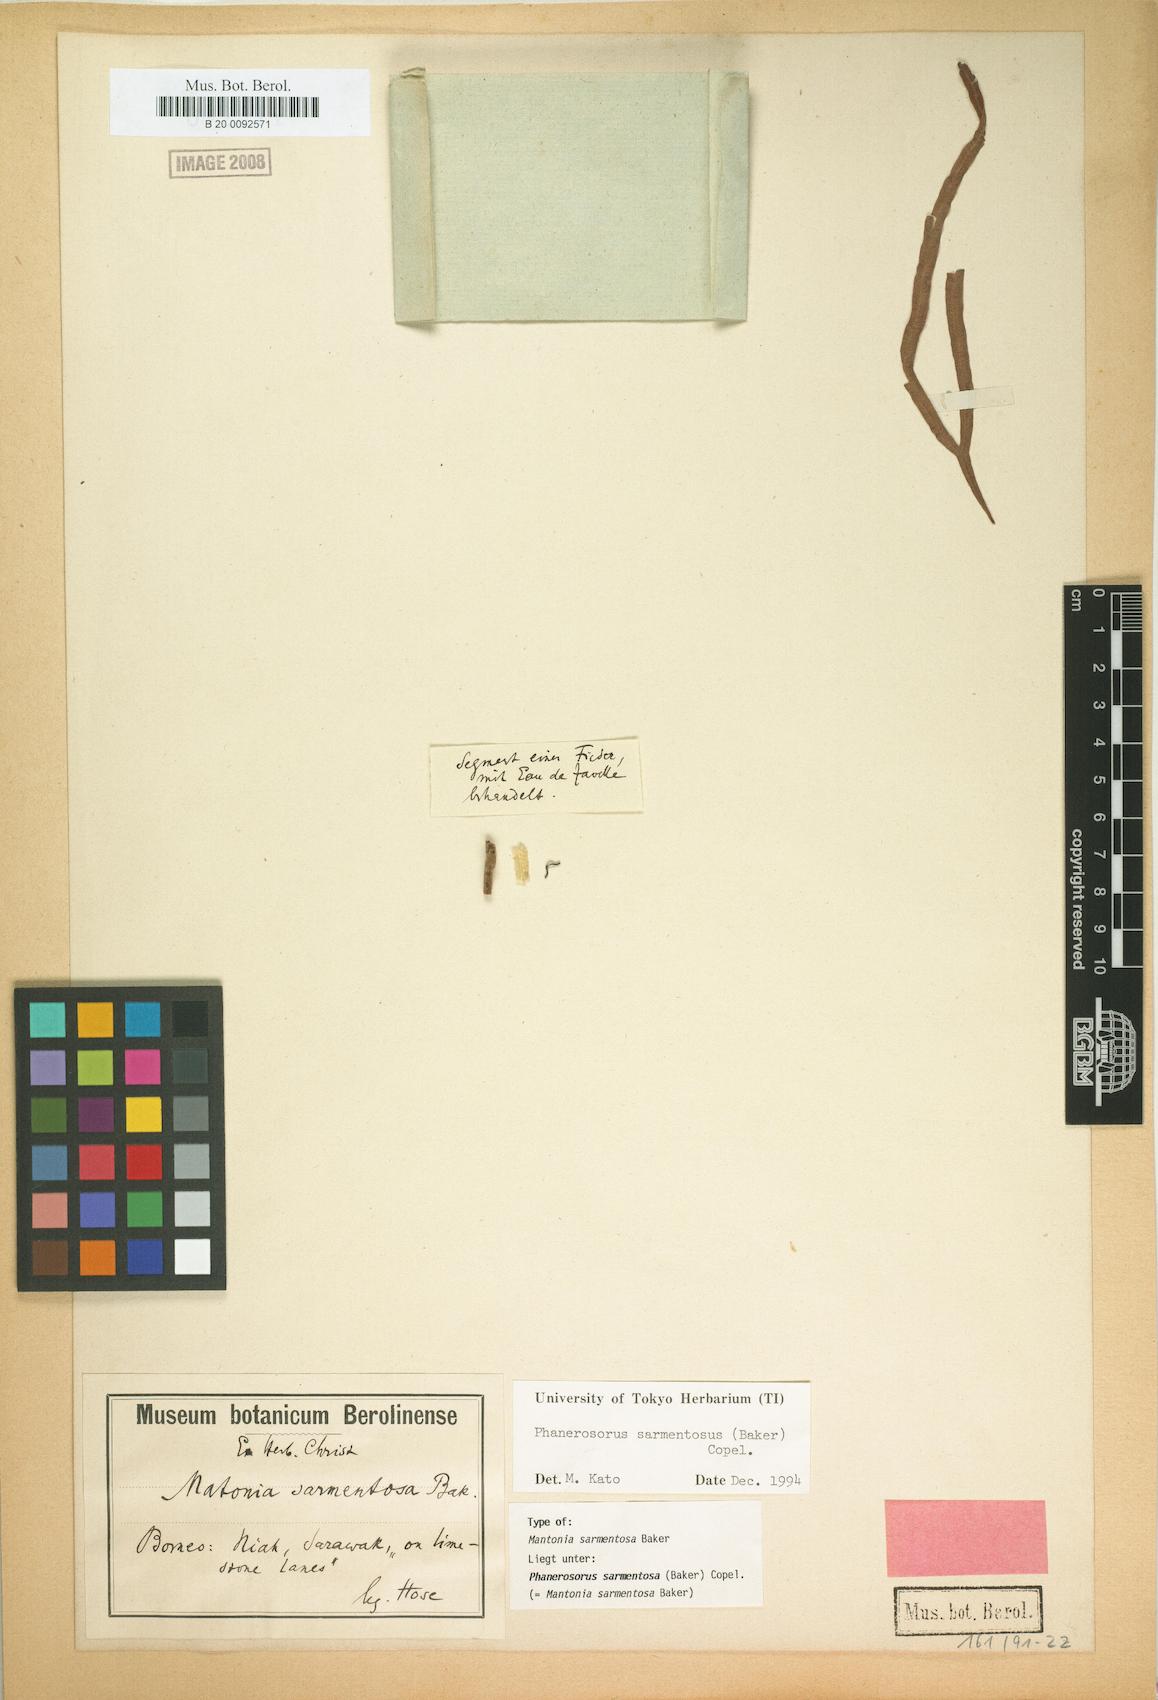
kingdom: Plantae
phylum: Tracheophyta
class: Polypodiopsida
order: Gleicheniales
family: Matoniaceae
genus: Phanerosorus
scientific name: Phanerosorus sarmentosus
